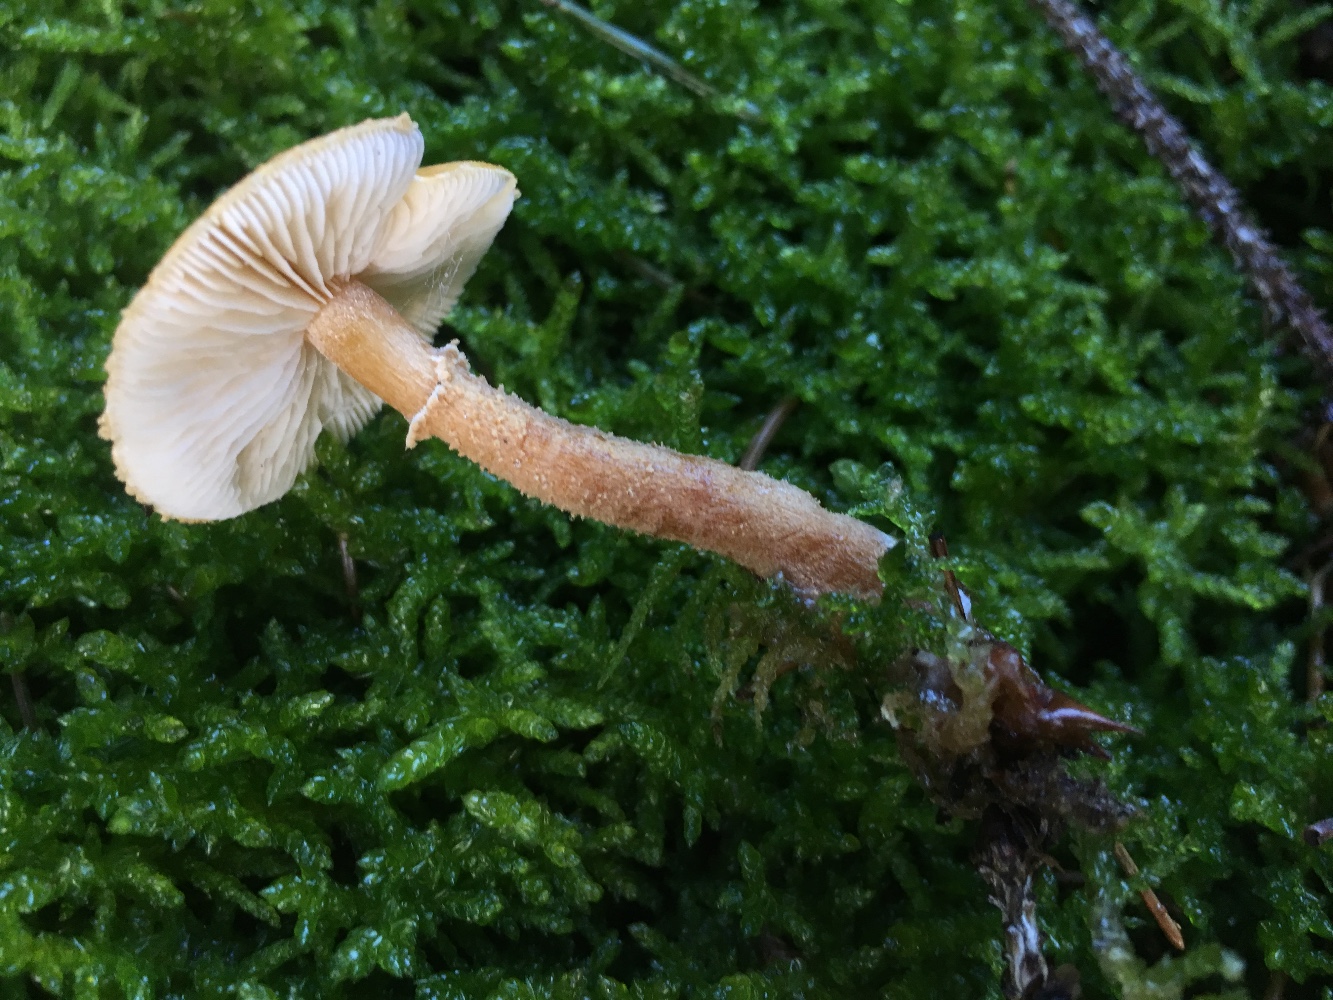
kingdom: Fungi
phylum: Basidiomycota
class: Agaricomycetes
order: Agaricales
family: Tricholomataceae
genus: Cystoderma
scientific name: Cystoderma amianthinum
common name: okkergul grynhat
